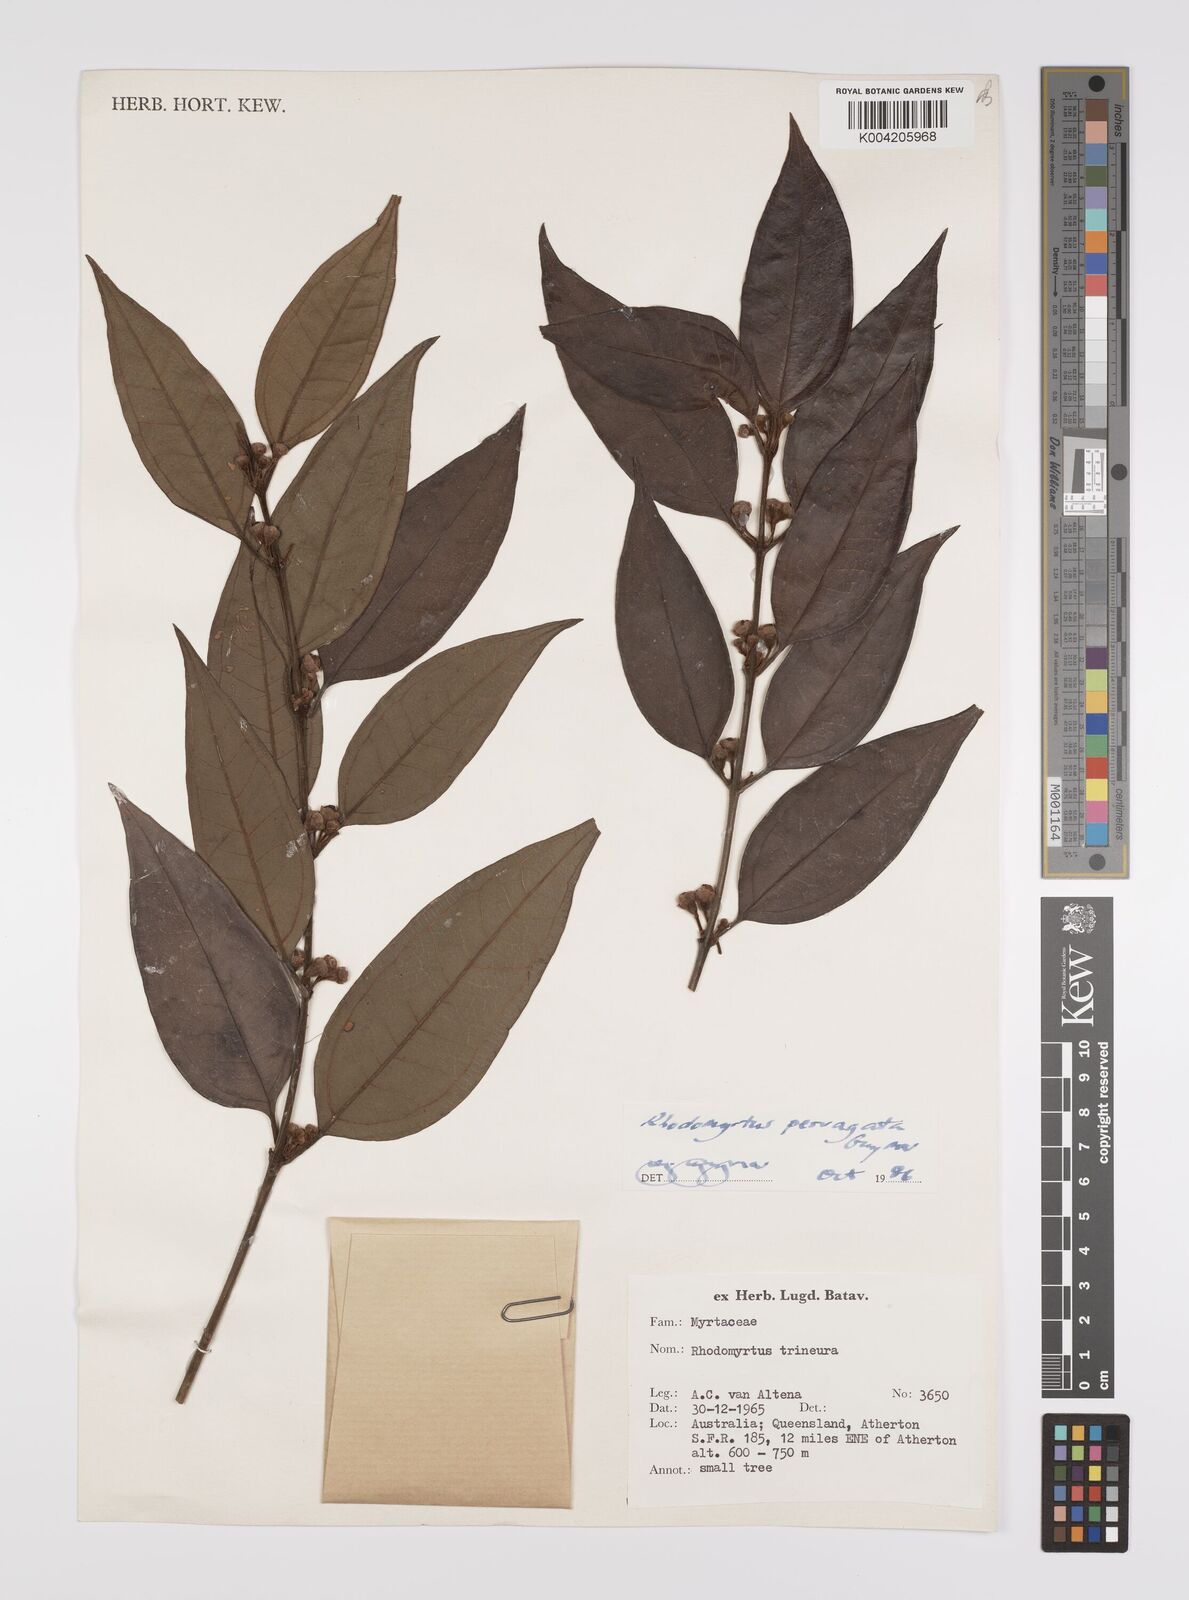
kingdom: Plantae
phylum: Tracheophyta
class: Magnoliopsida
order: Myrtales
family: Myrtaceae
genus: Rhodomyrtus
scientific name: Rhodomyrtus pervagata
